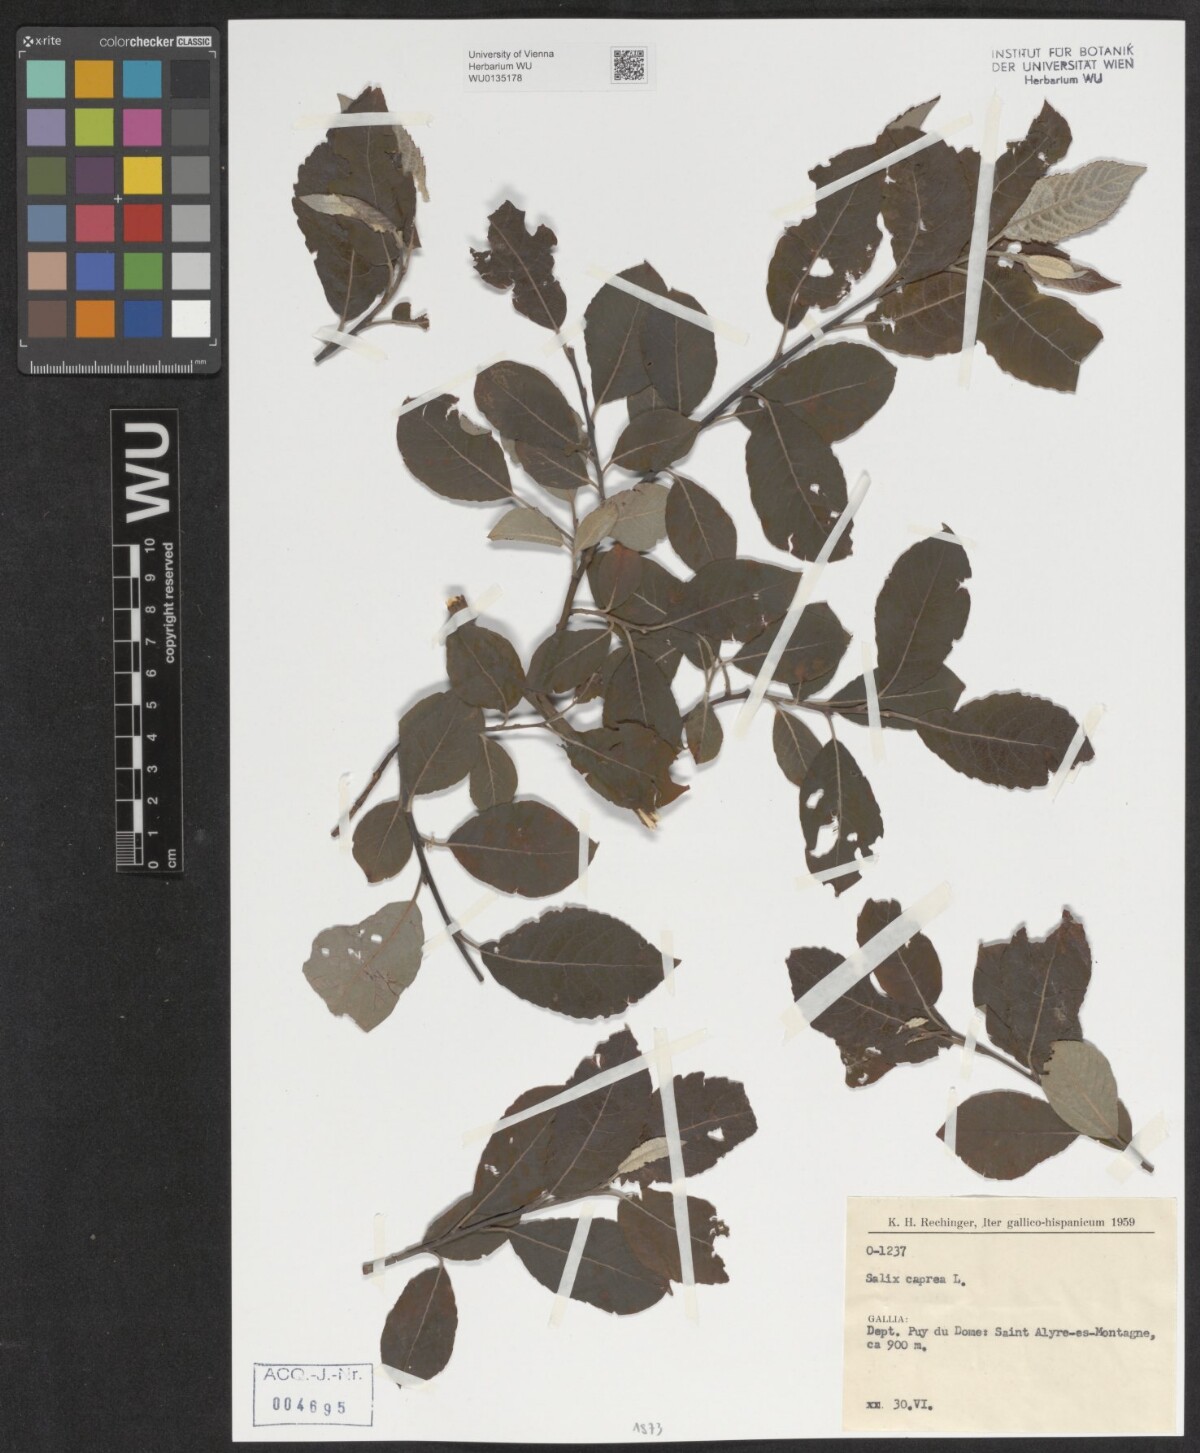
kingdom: Plantae
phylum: Tracheophyta
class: Magnoliopsida
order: Malpighiales
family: Salicaceae
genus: Salix
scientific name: Salix caprea
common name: Goat willow
